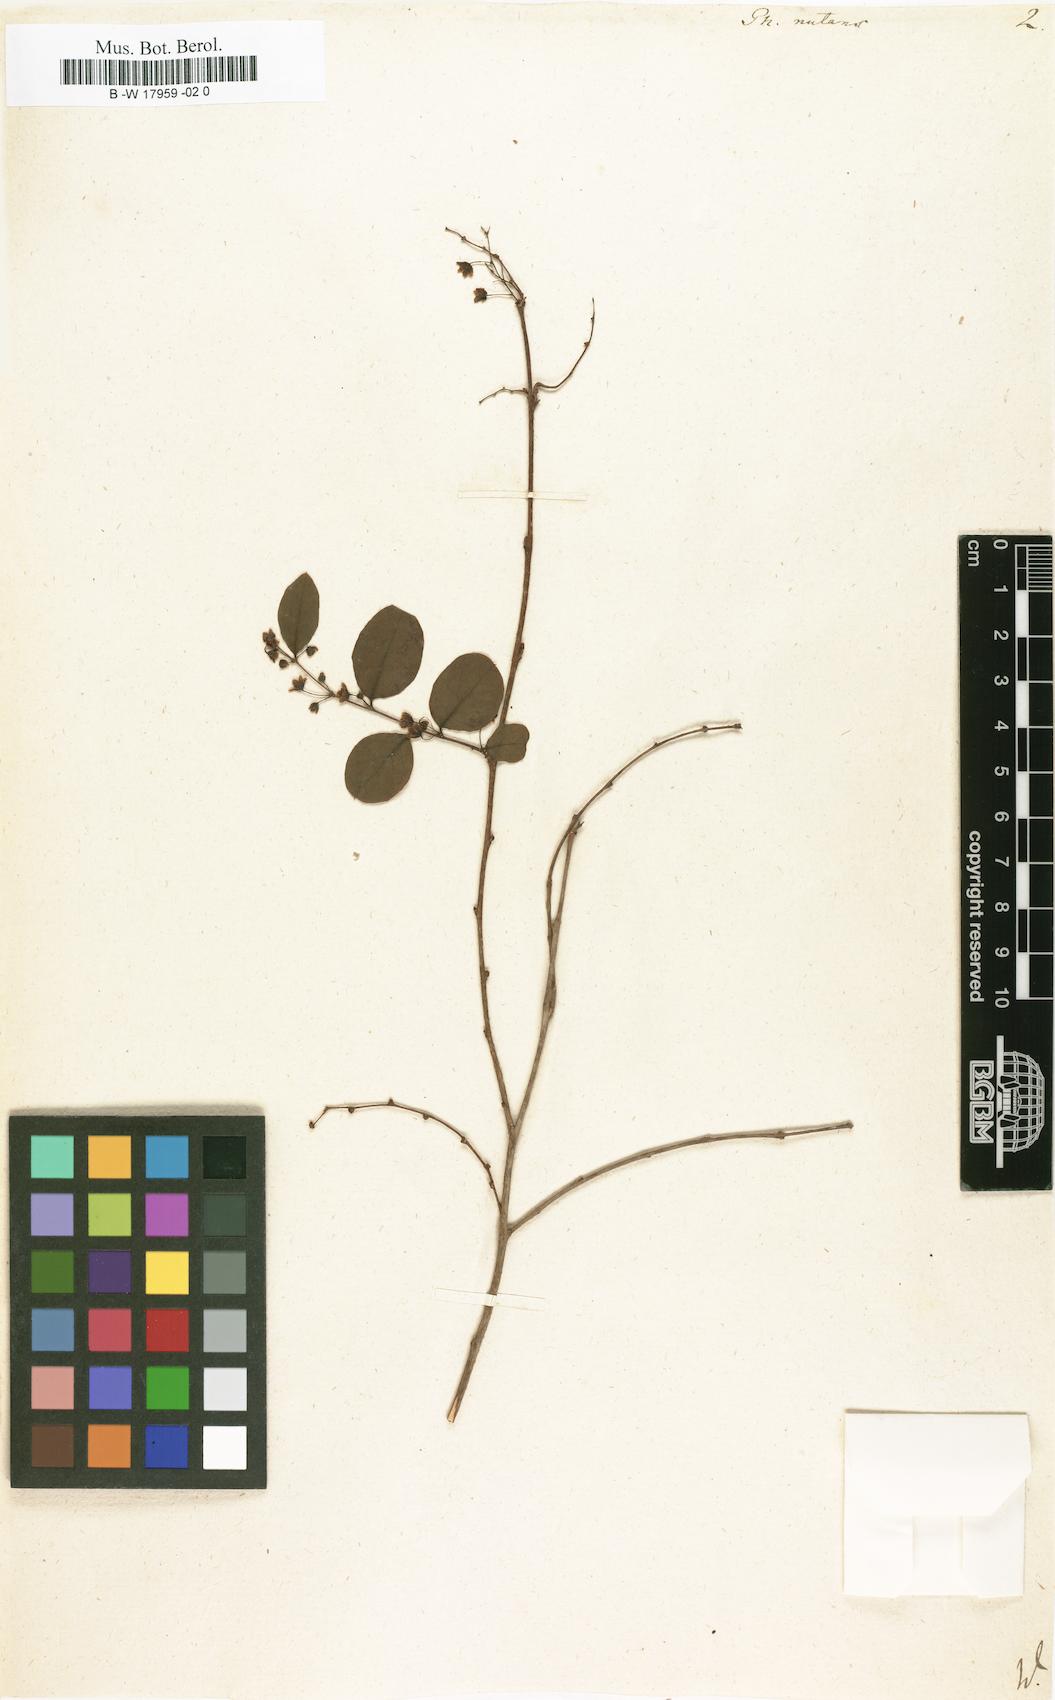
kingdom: Plantae
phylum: Tracheophyta
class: Magnoliopsida
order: Malpighiales
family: Phyllanthaceae
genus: Phyllanthus
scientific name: Phyllanthus nutans
